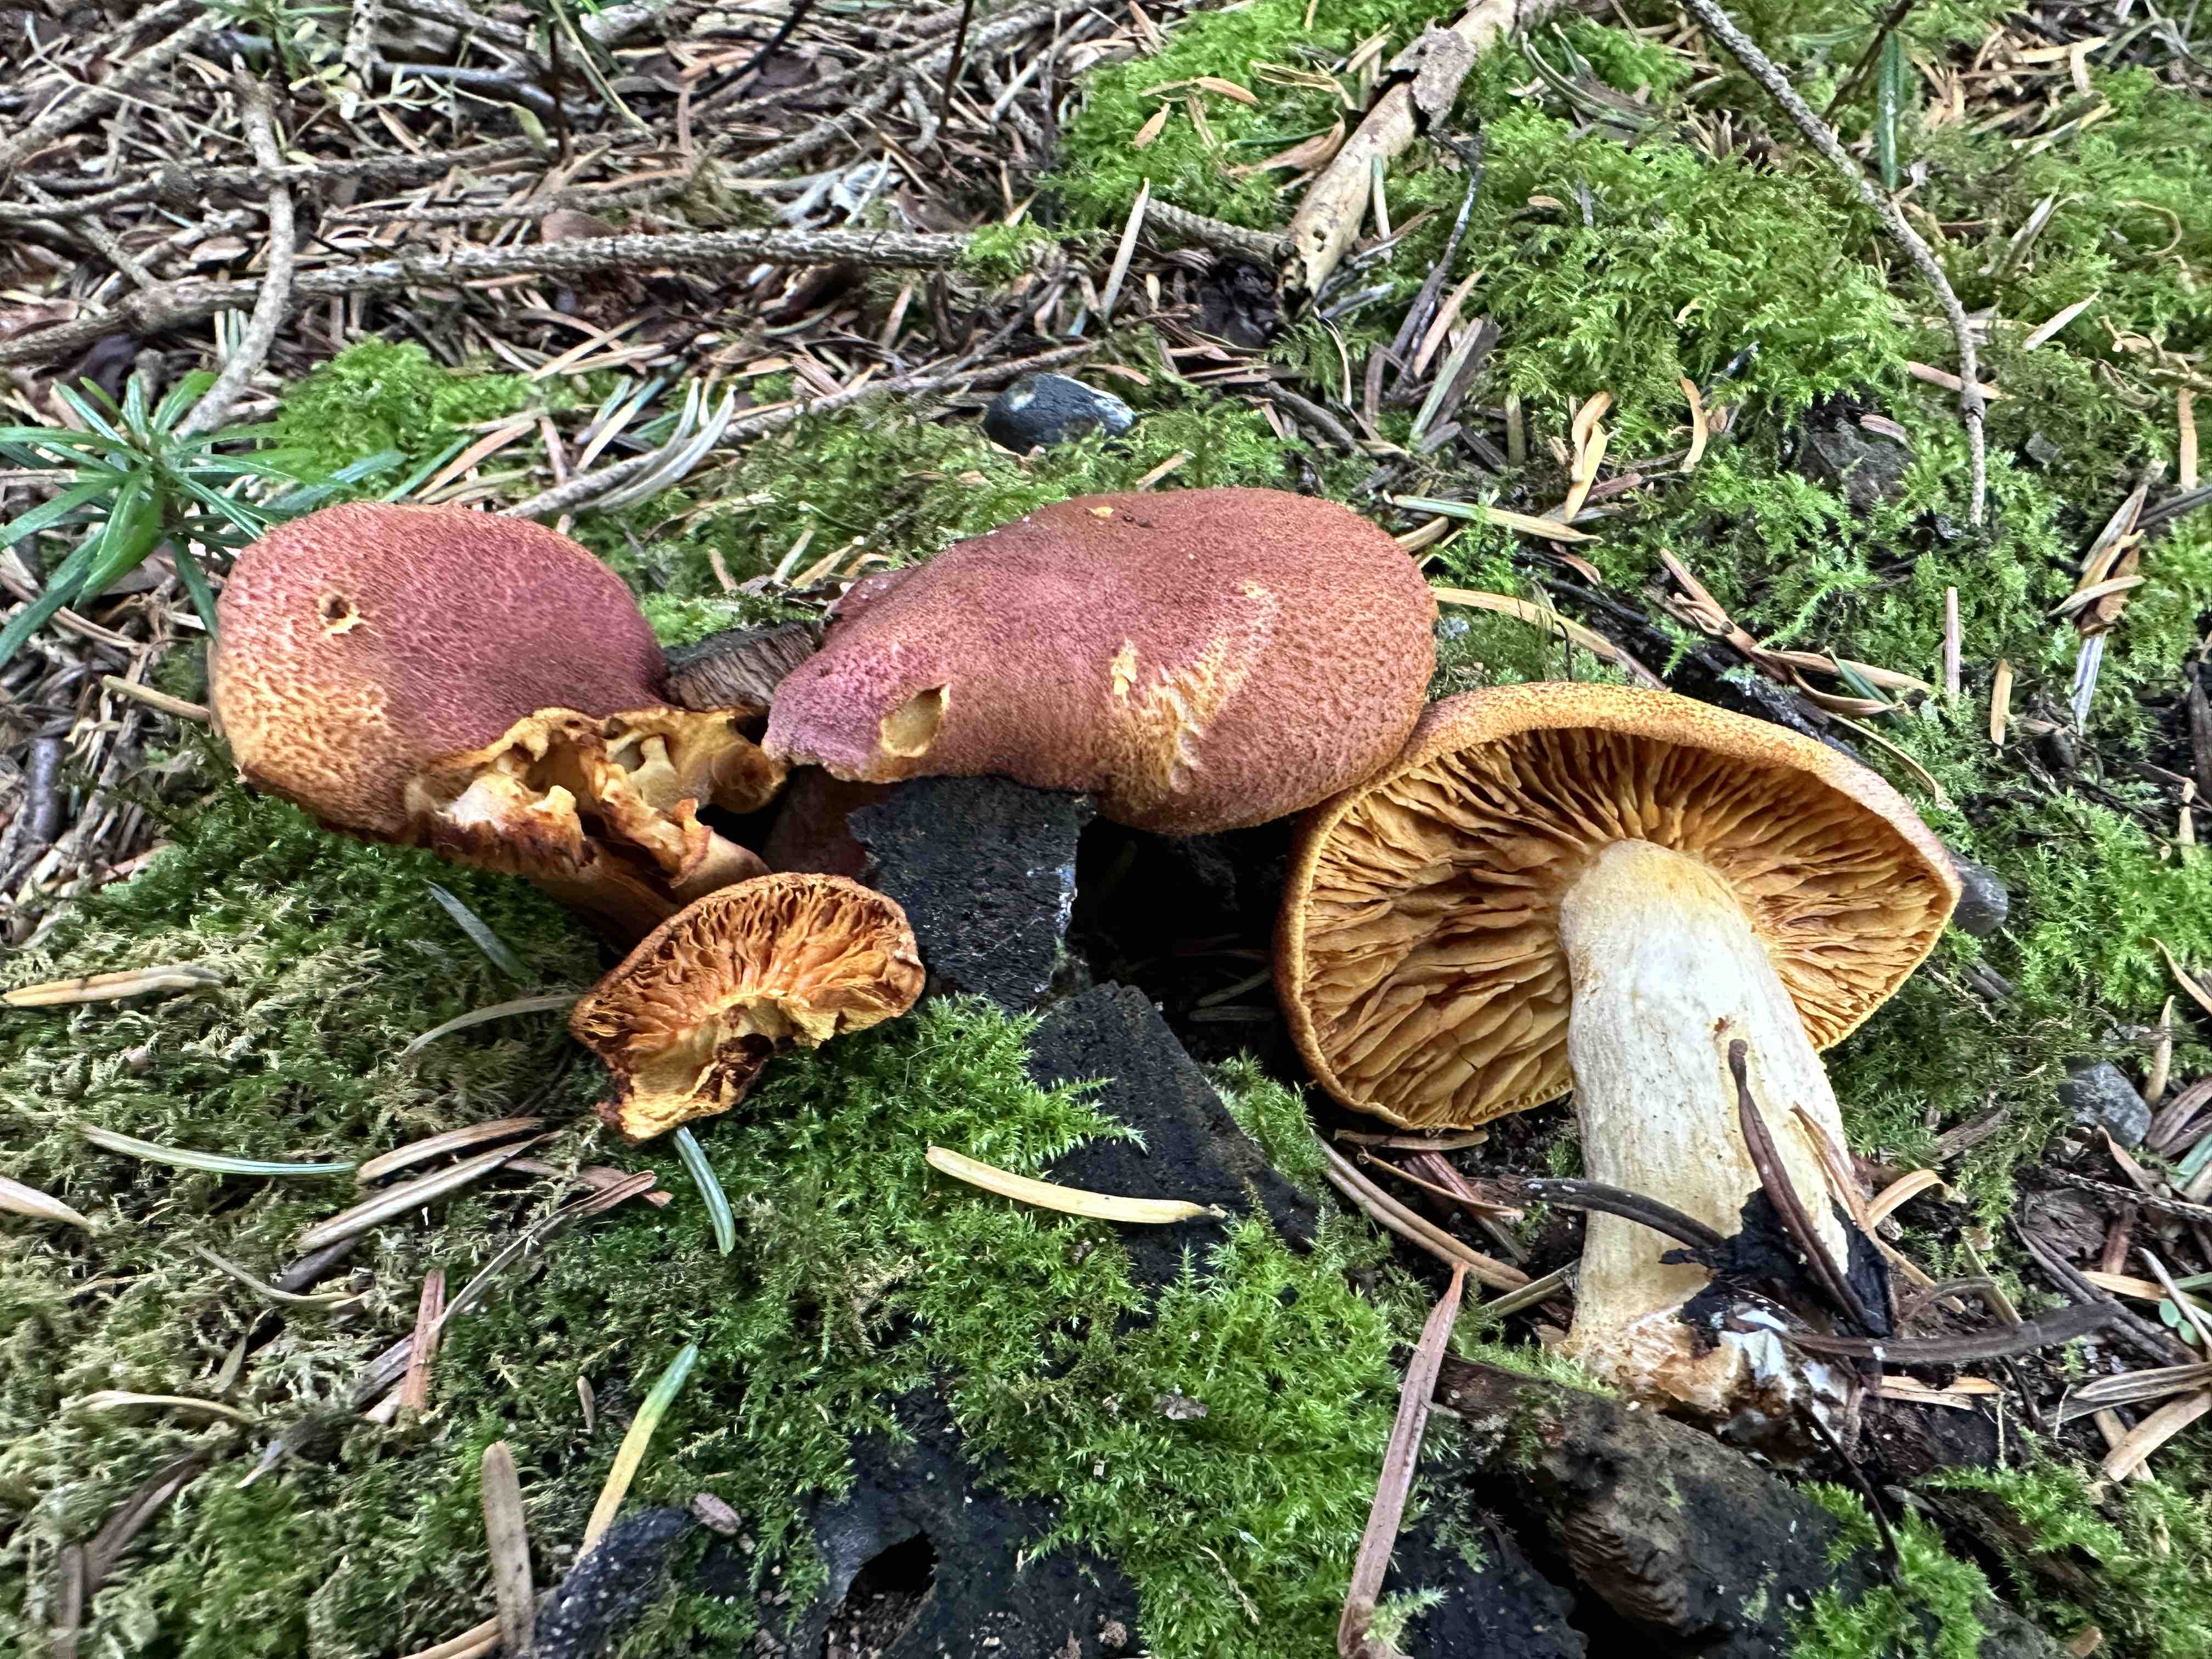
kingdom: Fungi
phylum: Basidiomycota
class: Agaricomycetes
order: Agaricales
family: Tricholomataceae
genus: Tricholomopsis
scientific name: Tricholomopsis rutilans
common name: purpur-væbnerhat
